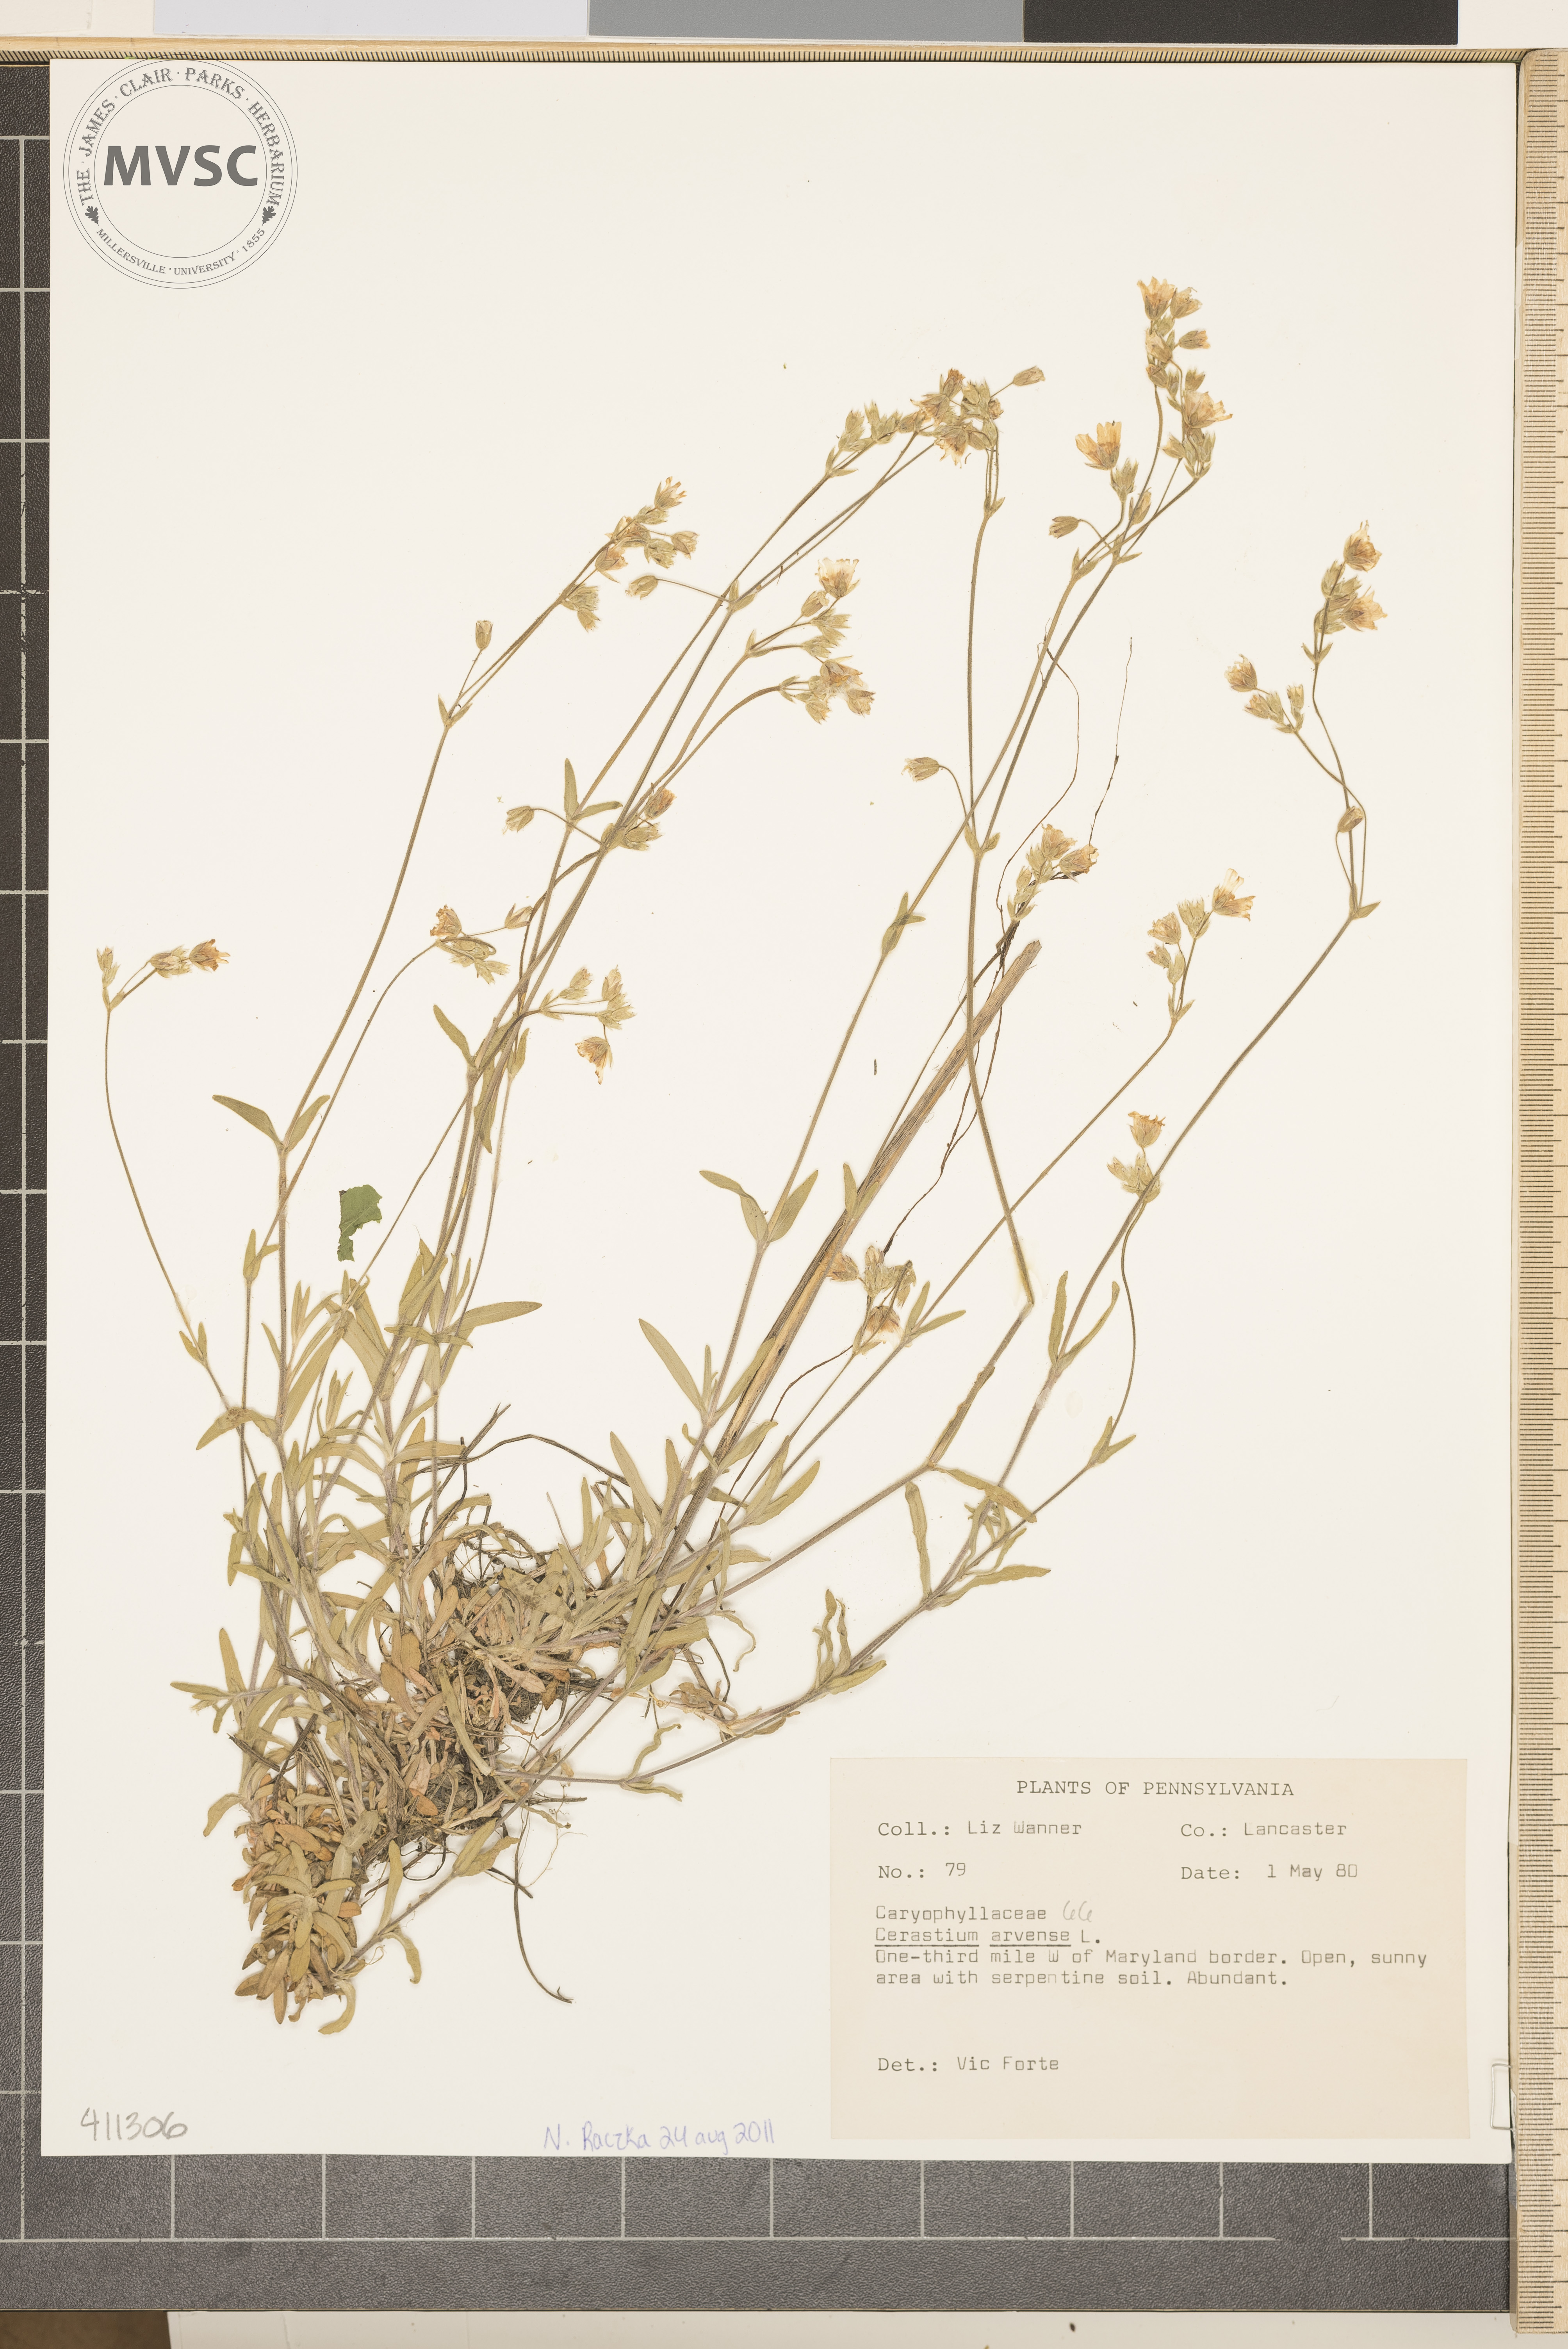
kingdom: Plantae
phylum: Tracheophyta
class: Magnoliopsida
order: Caryophyllales
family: Caryophyllaceae
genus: Cerastium
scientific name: Cerastium arvense
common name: Field chickweed
